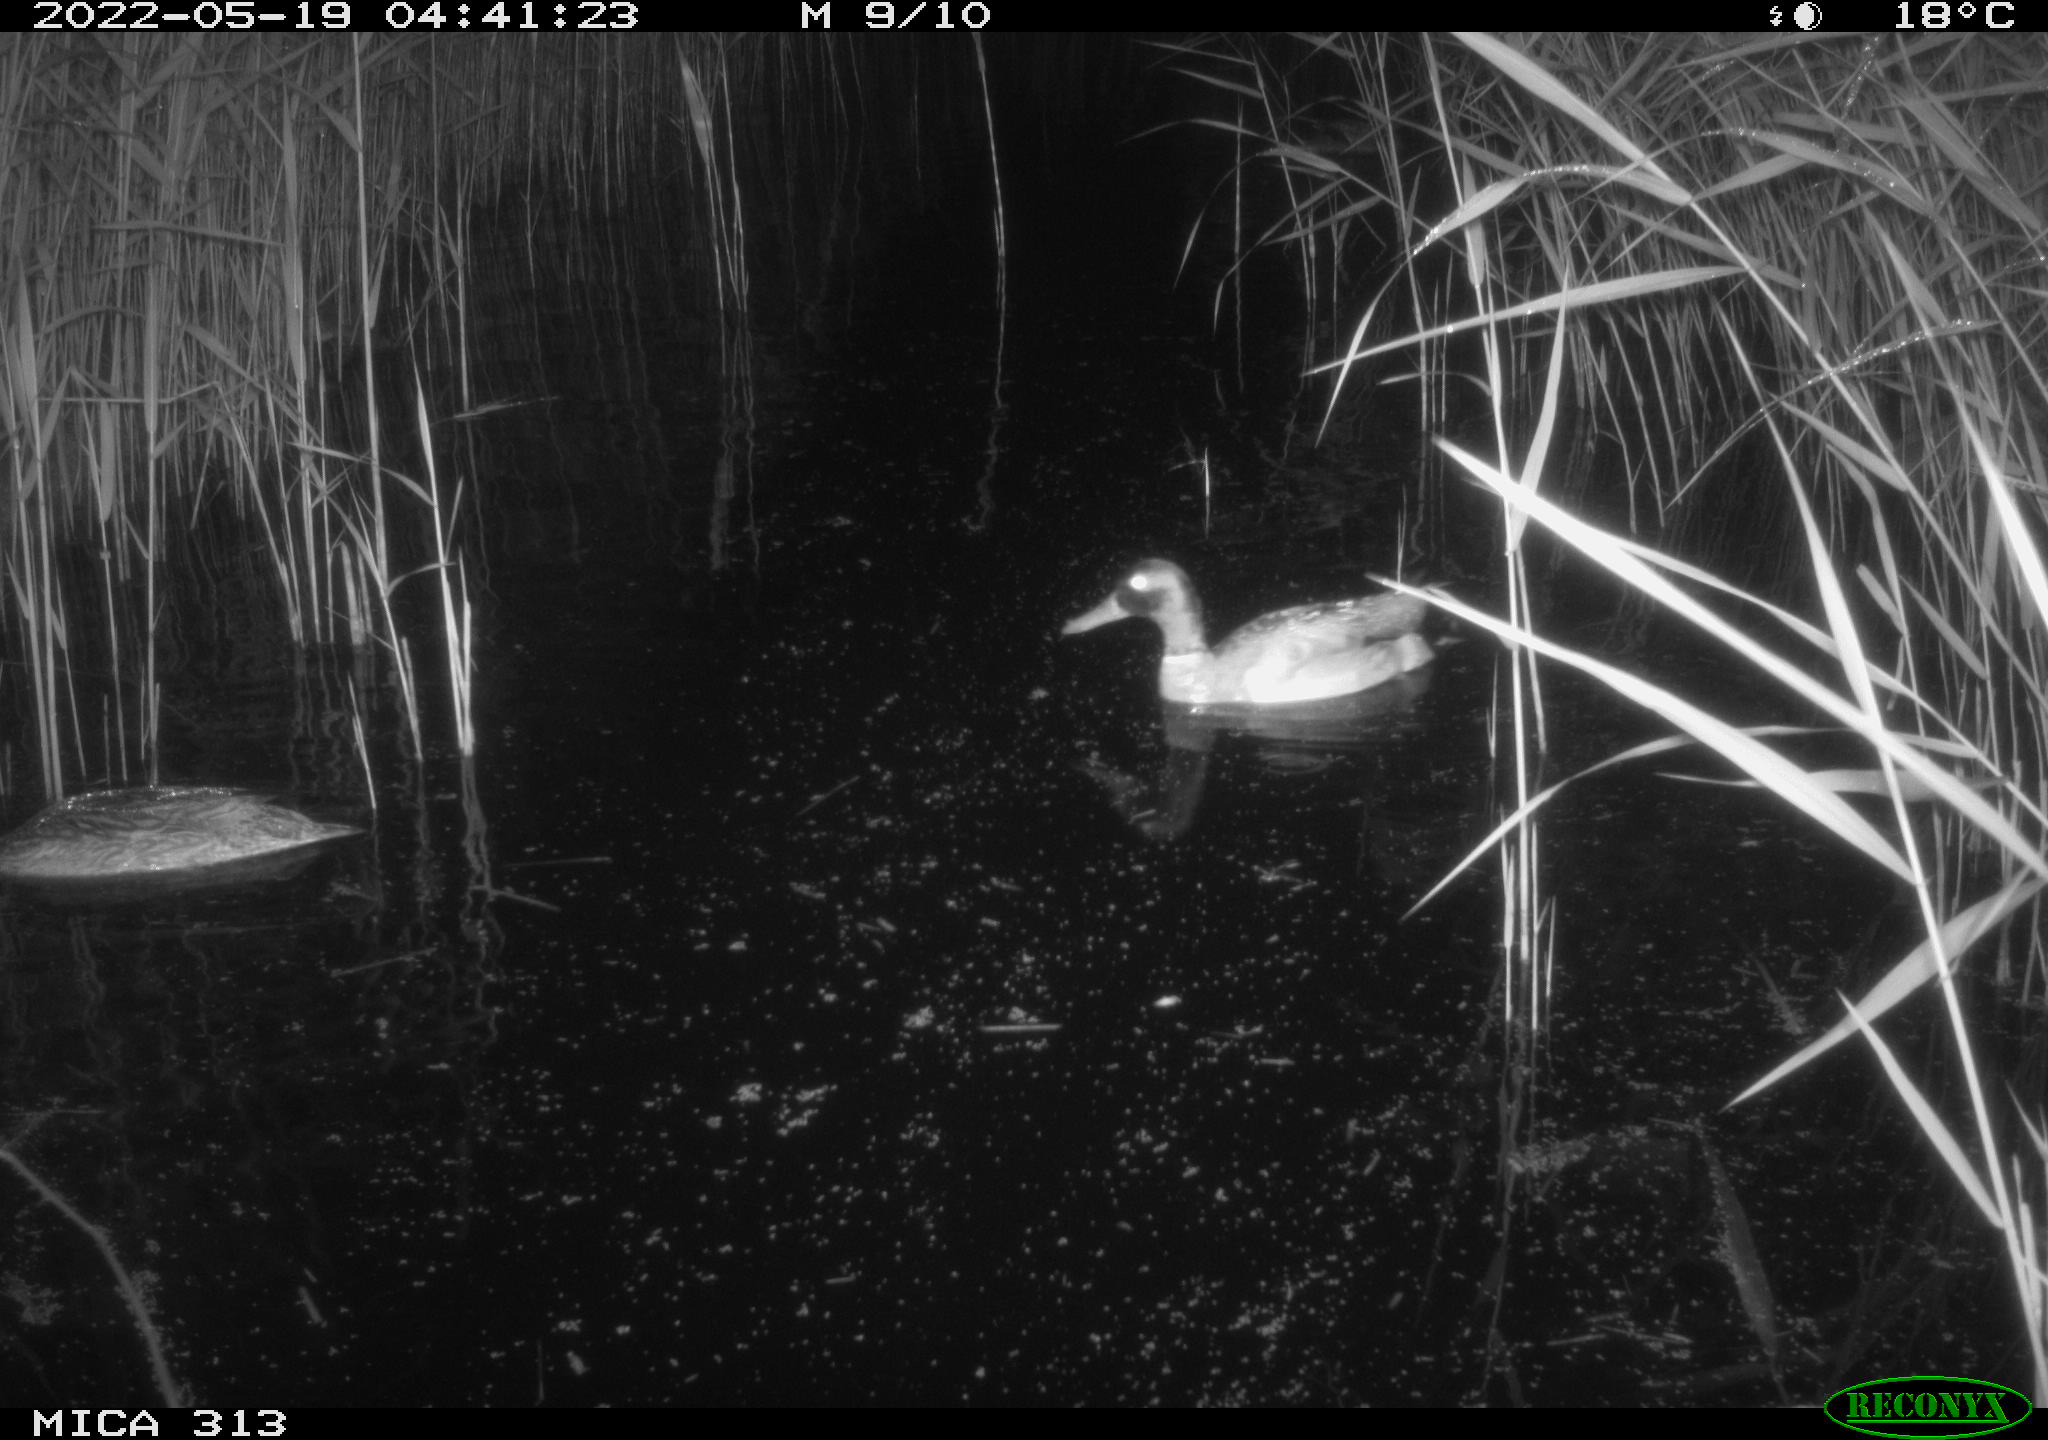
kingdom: Animalia
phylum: Chordata
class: Aves
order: Anseriformes
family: Anatidae
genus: Anas
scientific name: Anas platyrhynchos
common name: Mallard
